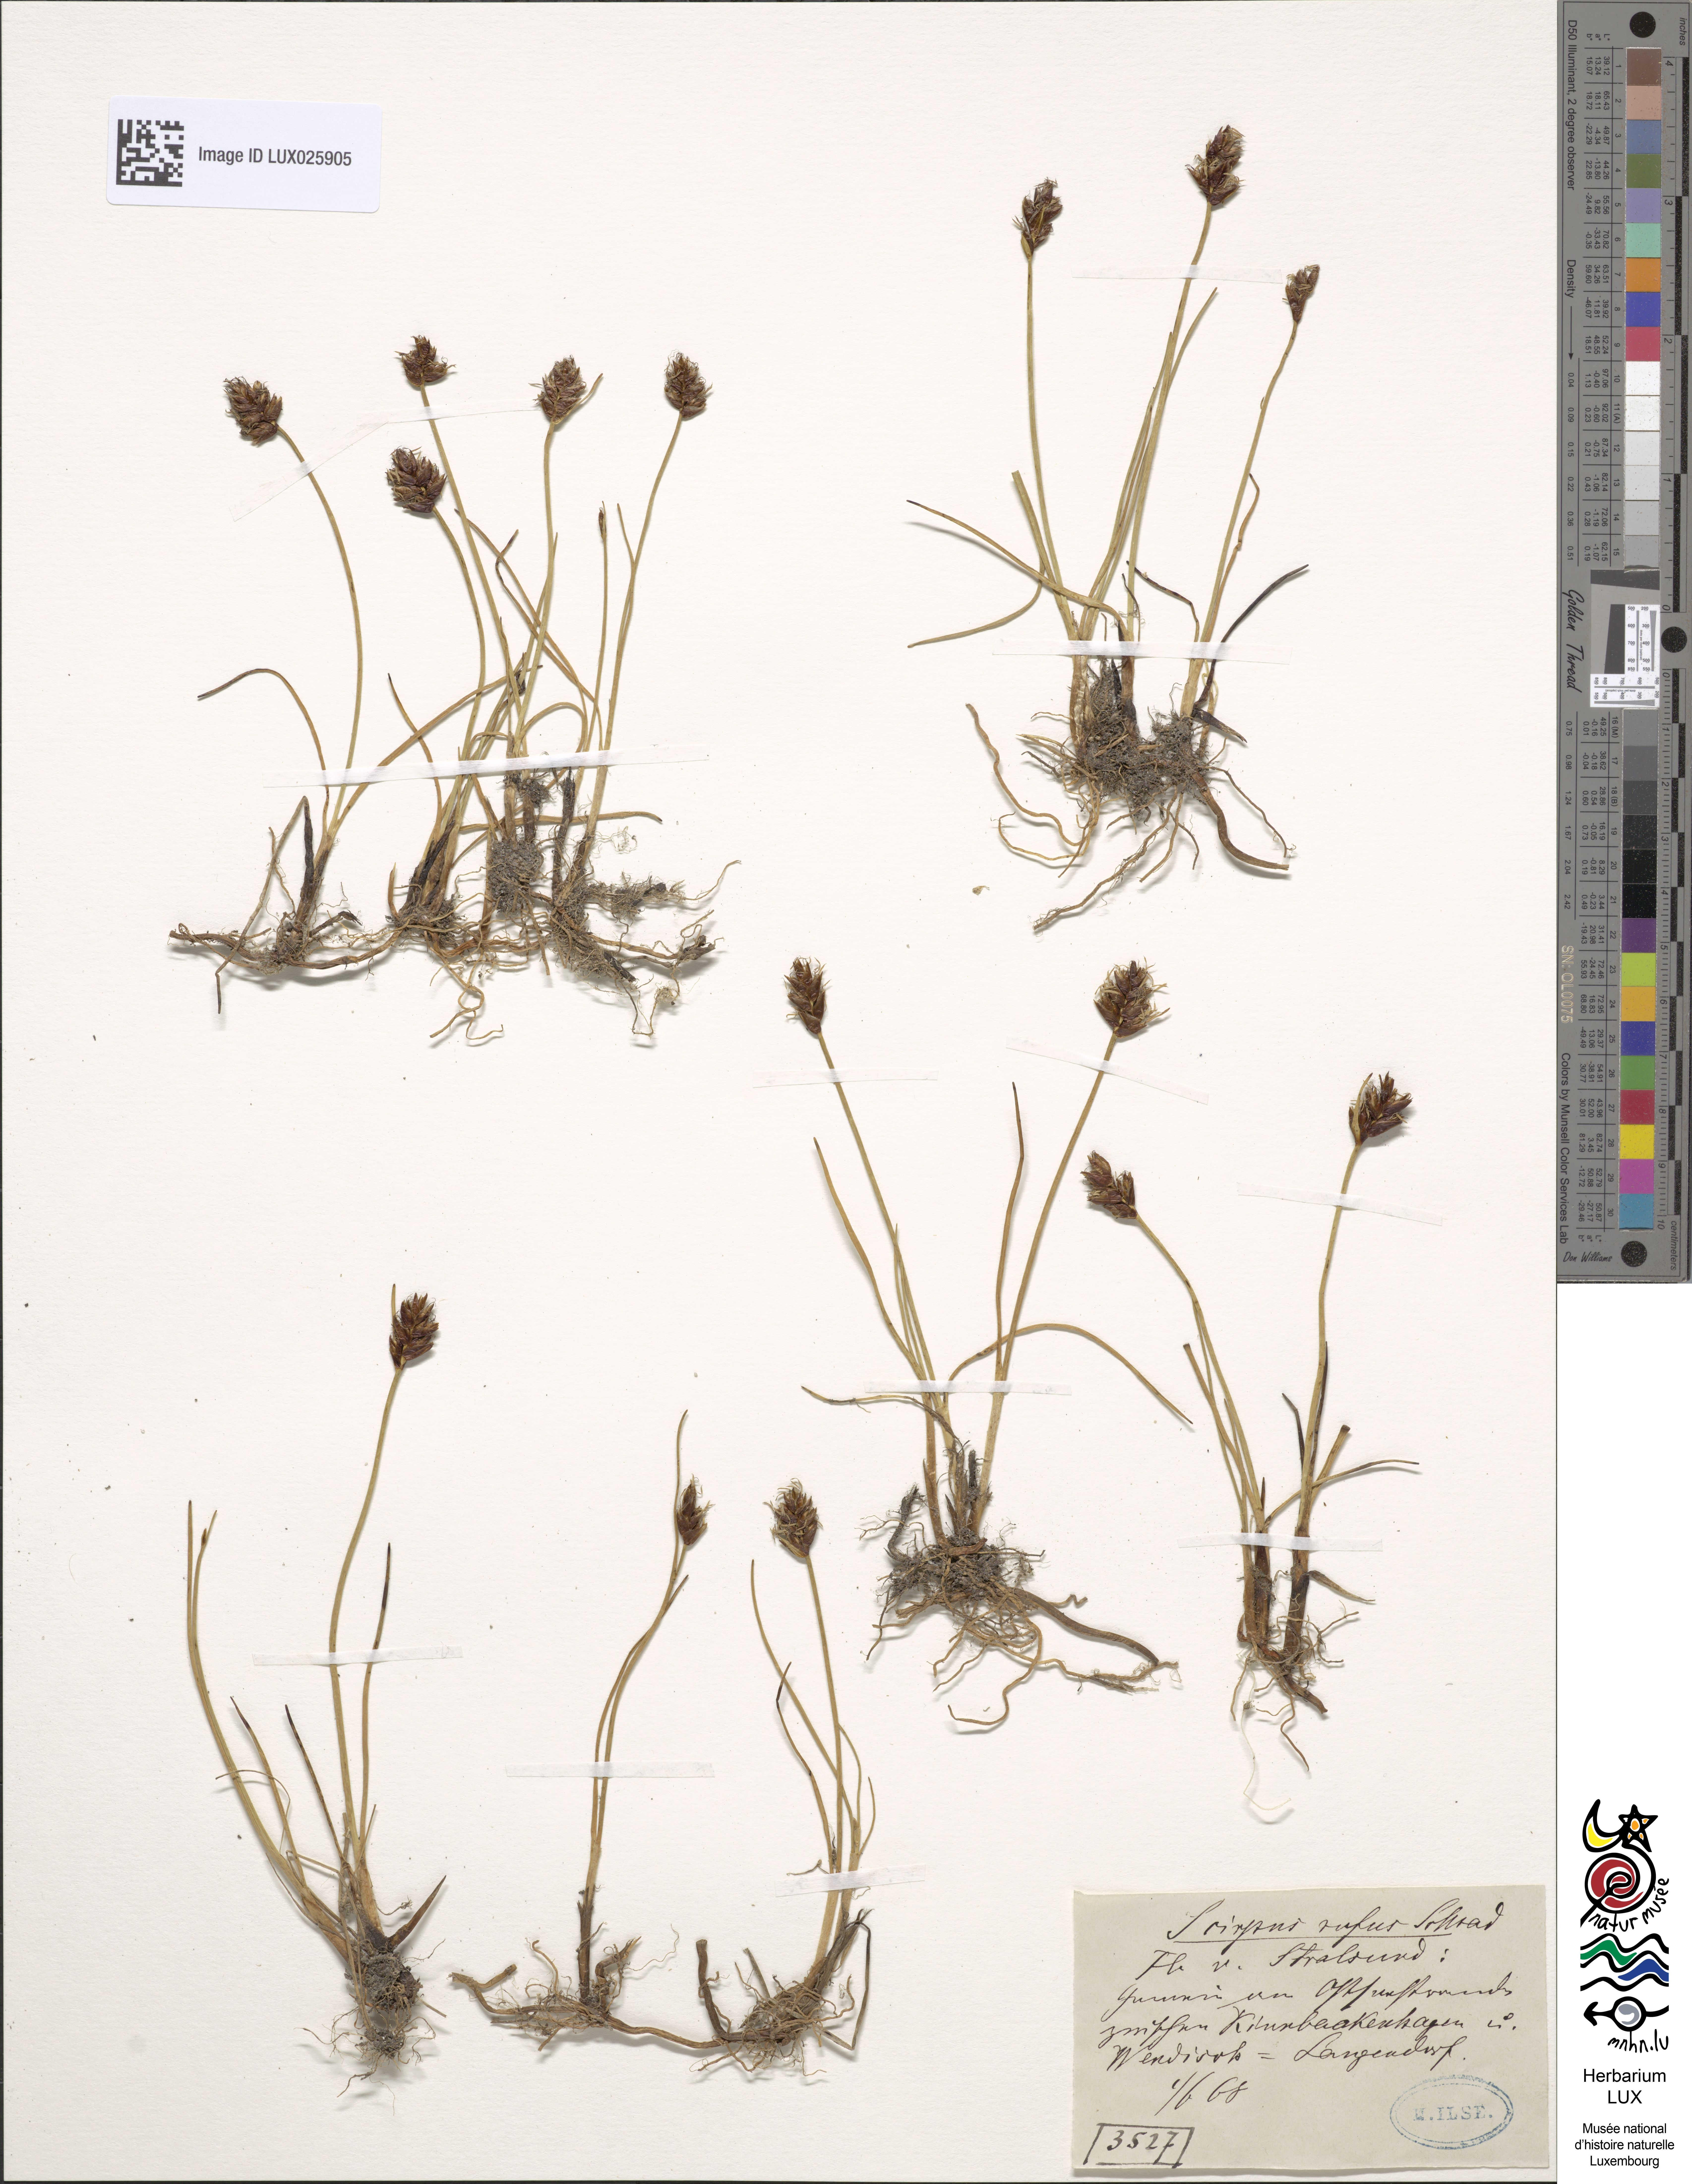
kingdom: Plantae
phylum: Tracheophyta
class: Liliopsida
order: Poales
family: Cyperaceae
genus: Blysmus
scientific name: Blysmus rufus
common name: Saltmarsh flat-sedge
